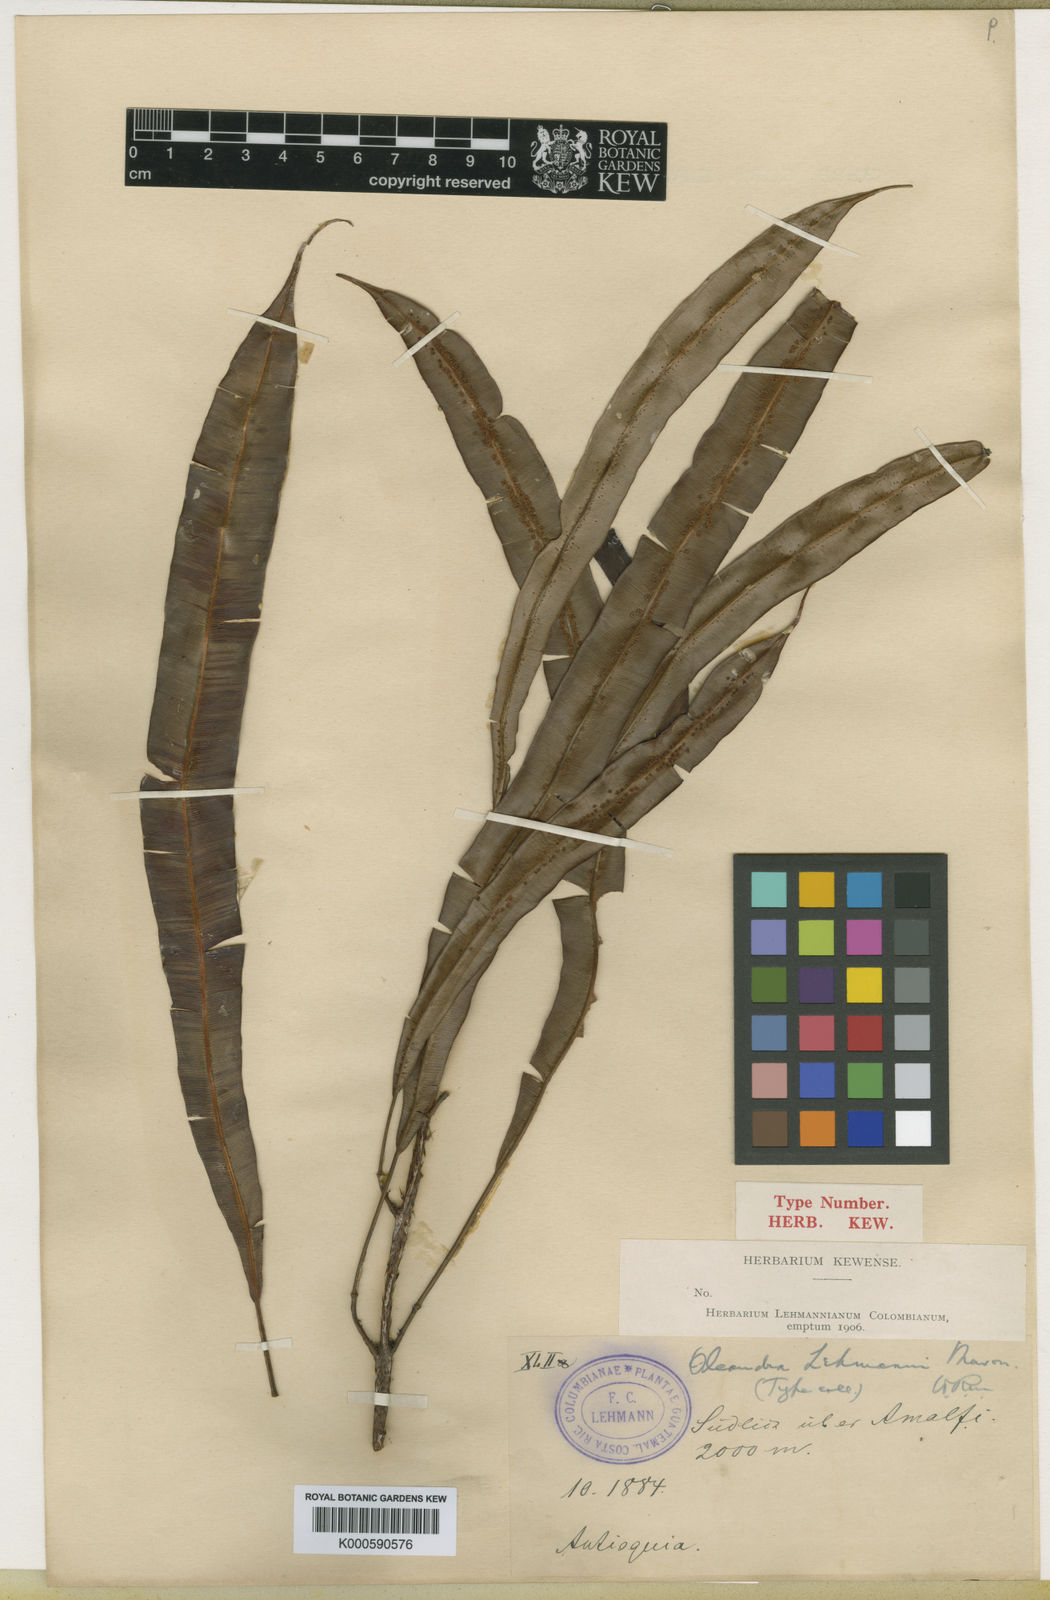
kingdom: Plantae
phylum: Tracheophyta
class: Polypodiopsida
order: Polypodiales
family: Oleandraceae
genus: Oleandra
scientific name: Oleandra lehmannii
